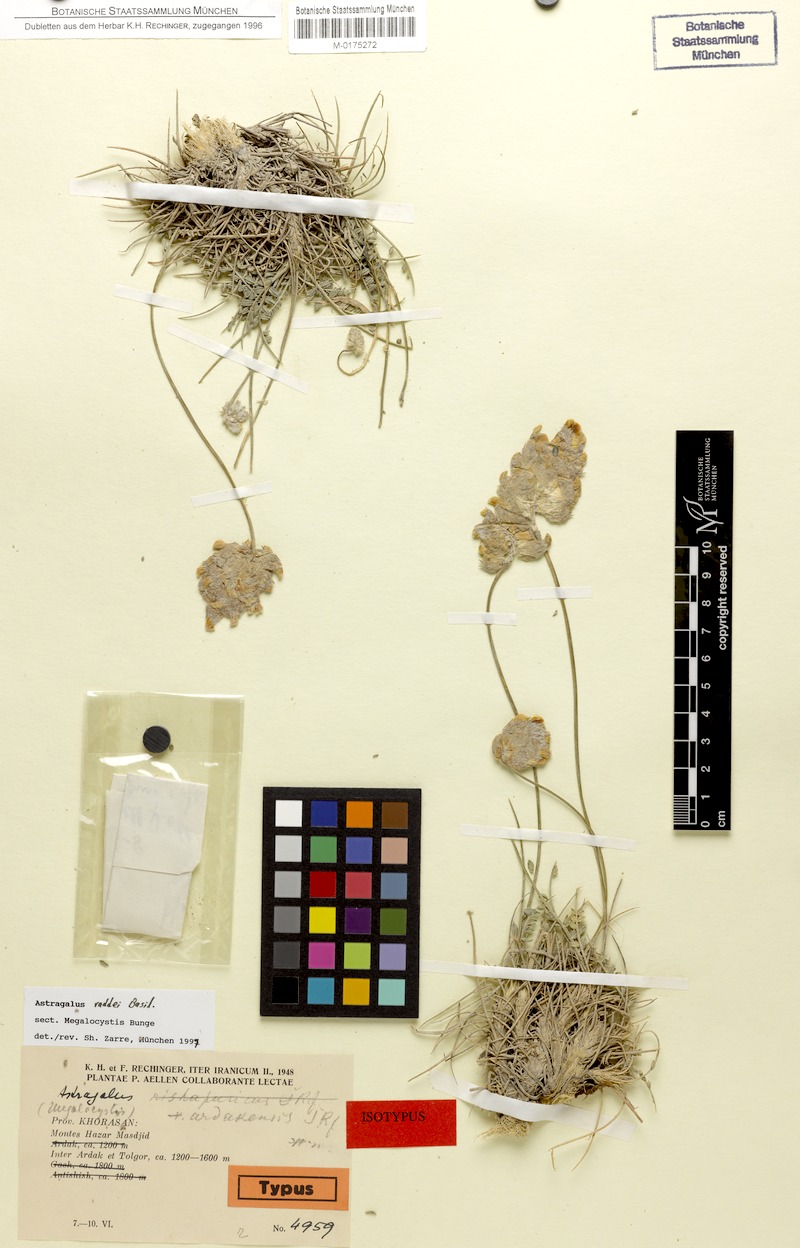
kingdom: Plantae
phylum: Tracheophyta
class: Magnoliopsida
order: Fabales
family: Fabaceae
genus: Astragalus
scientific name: Astragalus raddei
